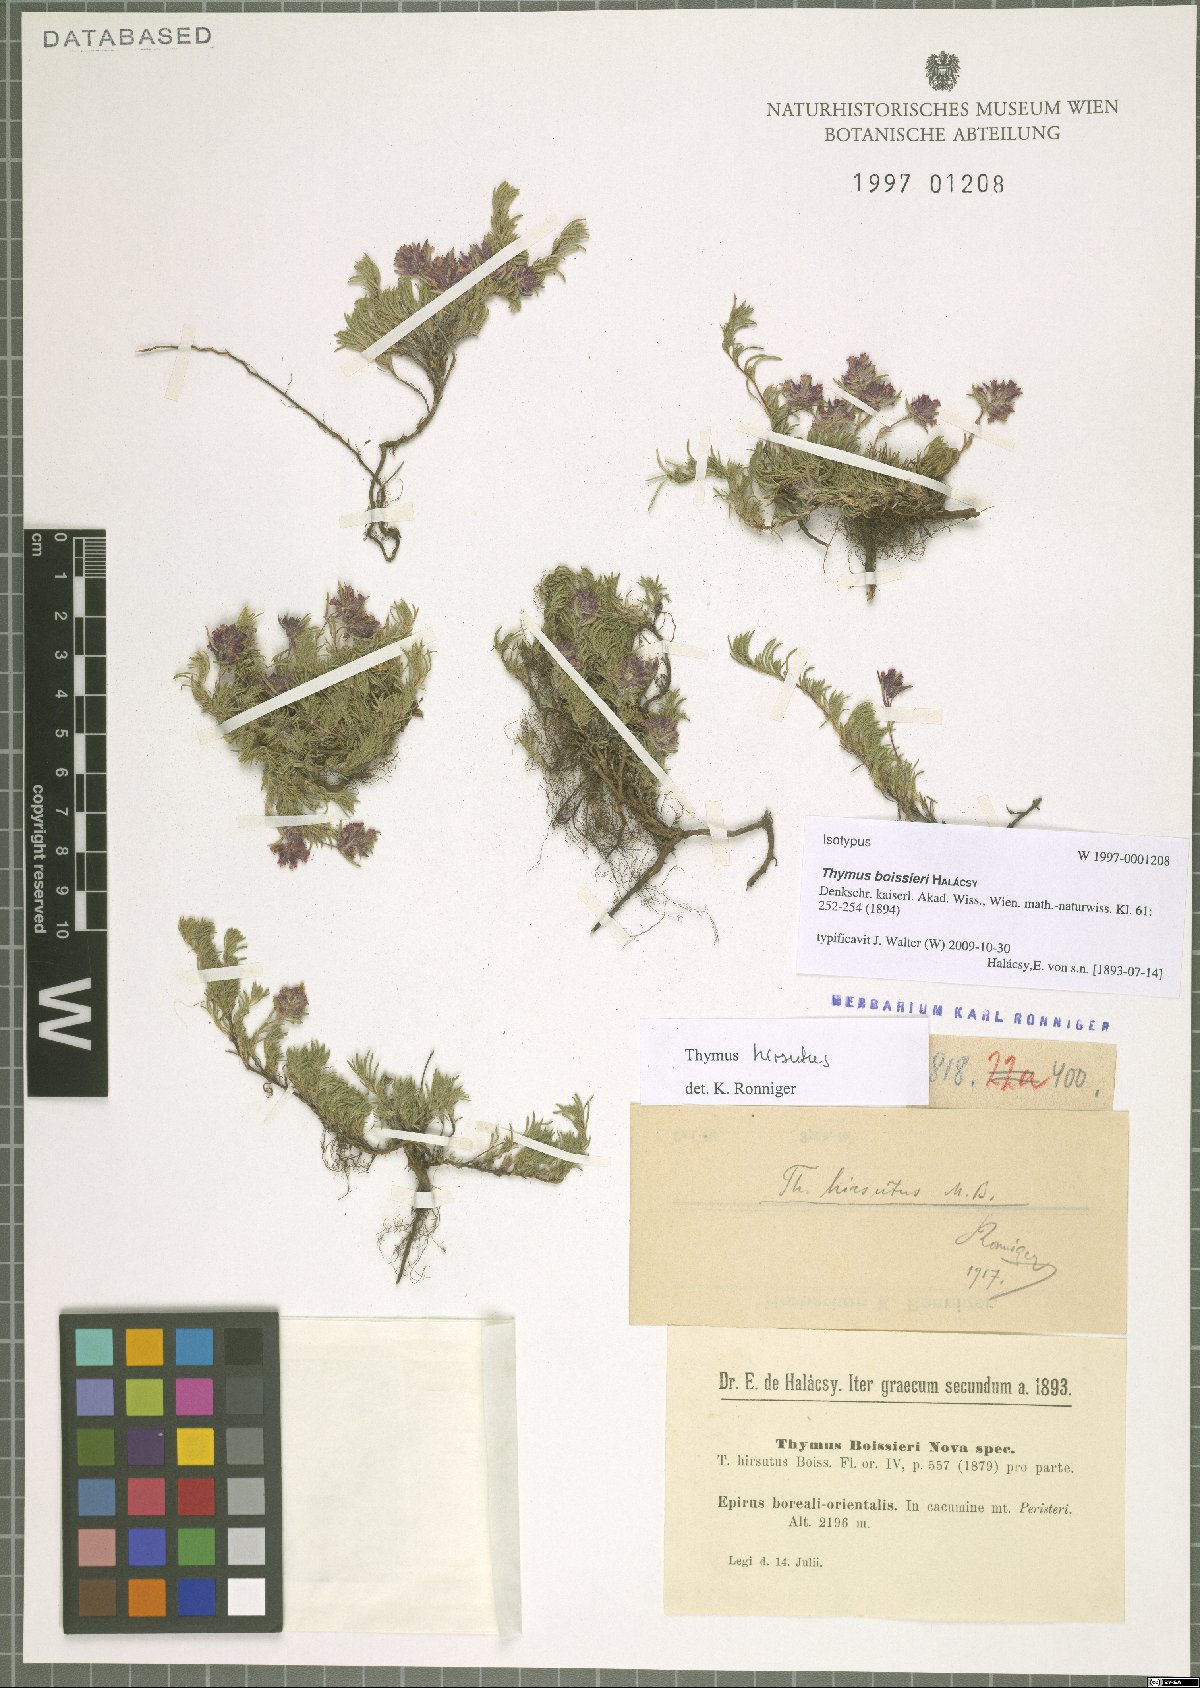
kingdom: Plantae
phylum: Tracheophyta
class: Magnoliopsida
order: Lamiales
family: Lamiaceae
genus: Thymus
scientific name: Thymus boissieri
